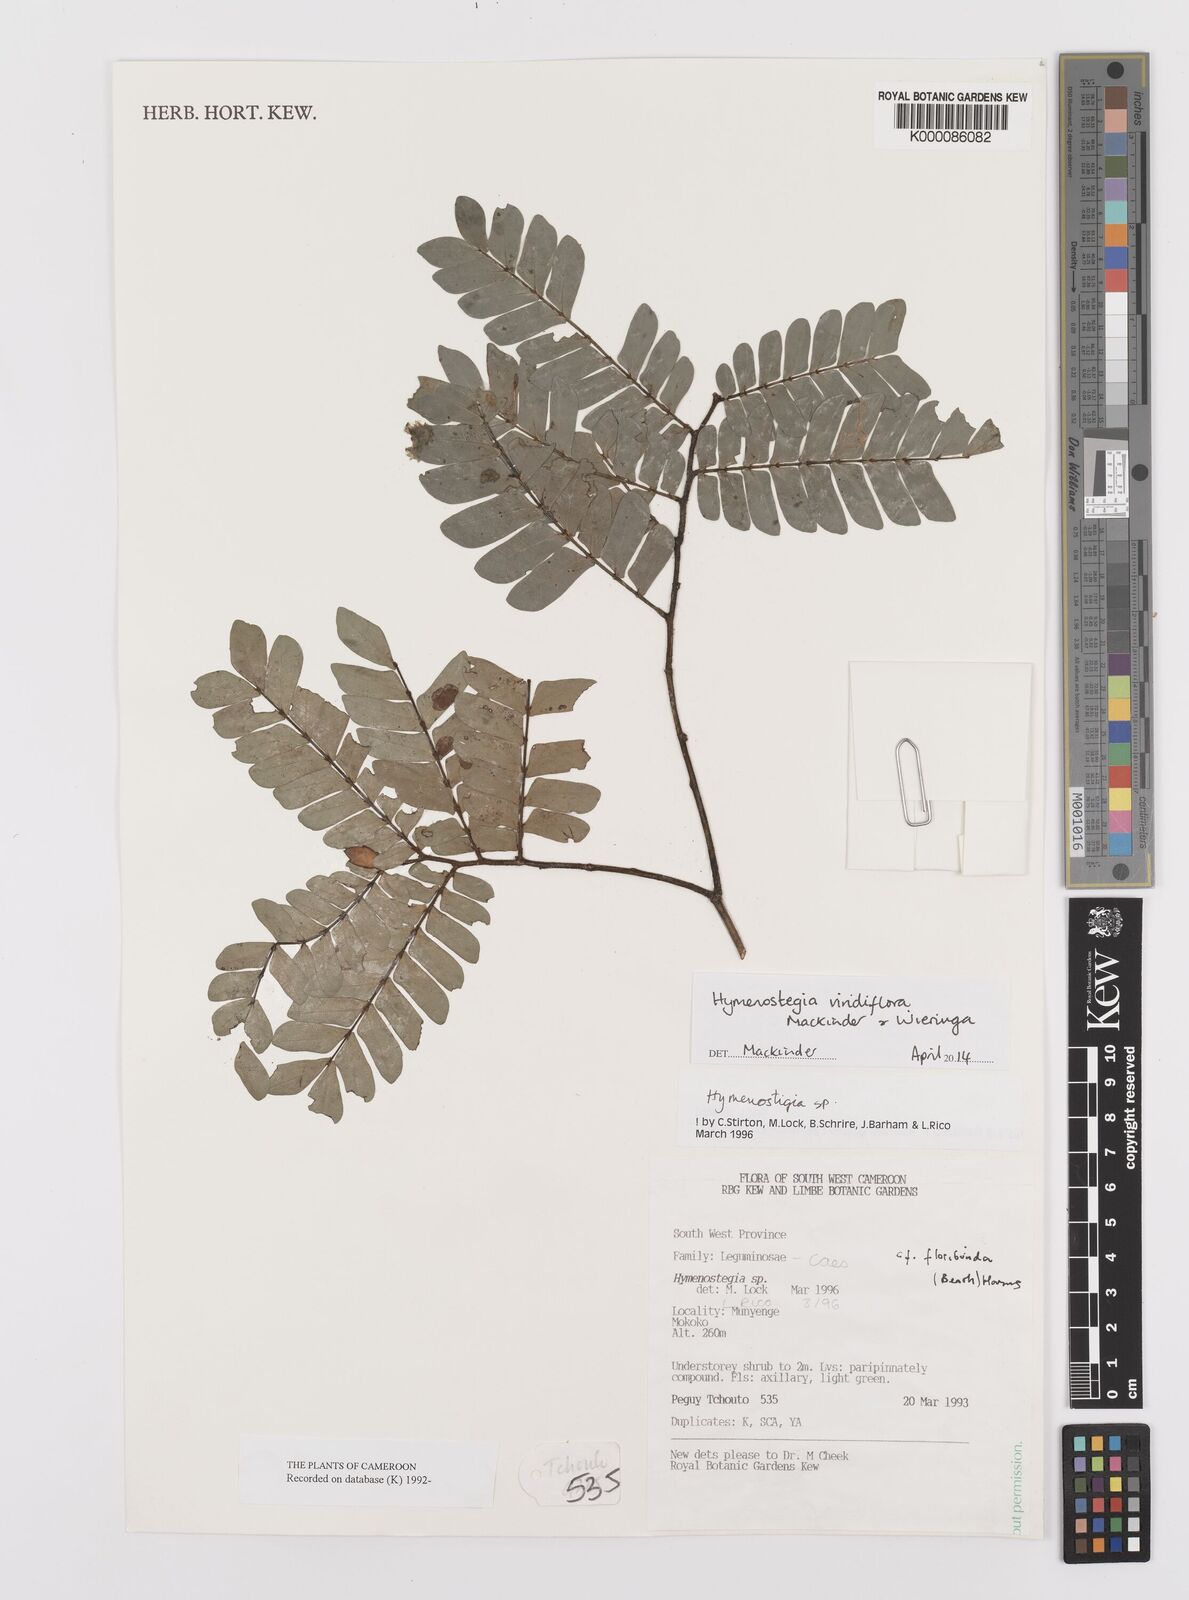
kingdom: Plantae
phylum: Tracheophyta
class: Magnoliopsida
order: Fabales
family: Fabaceae
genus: Hymenostegia
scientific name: Hymenostegia
